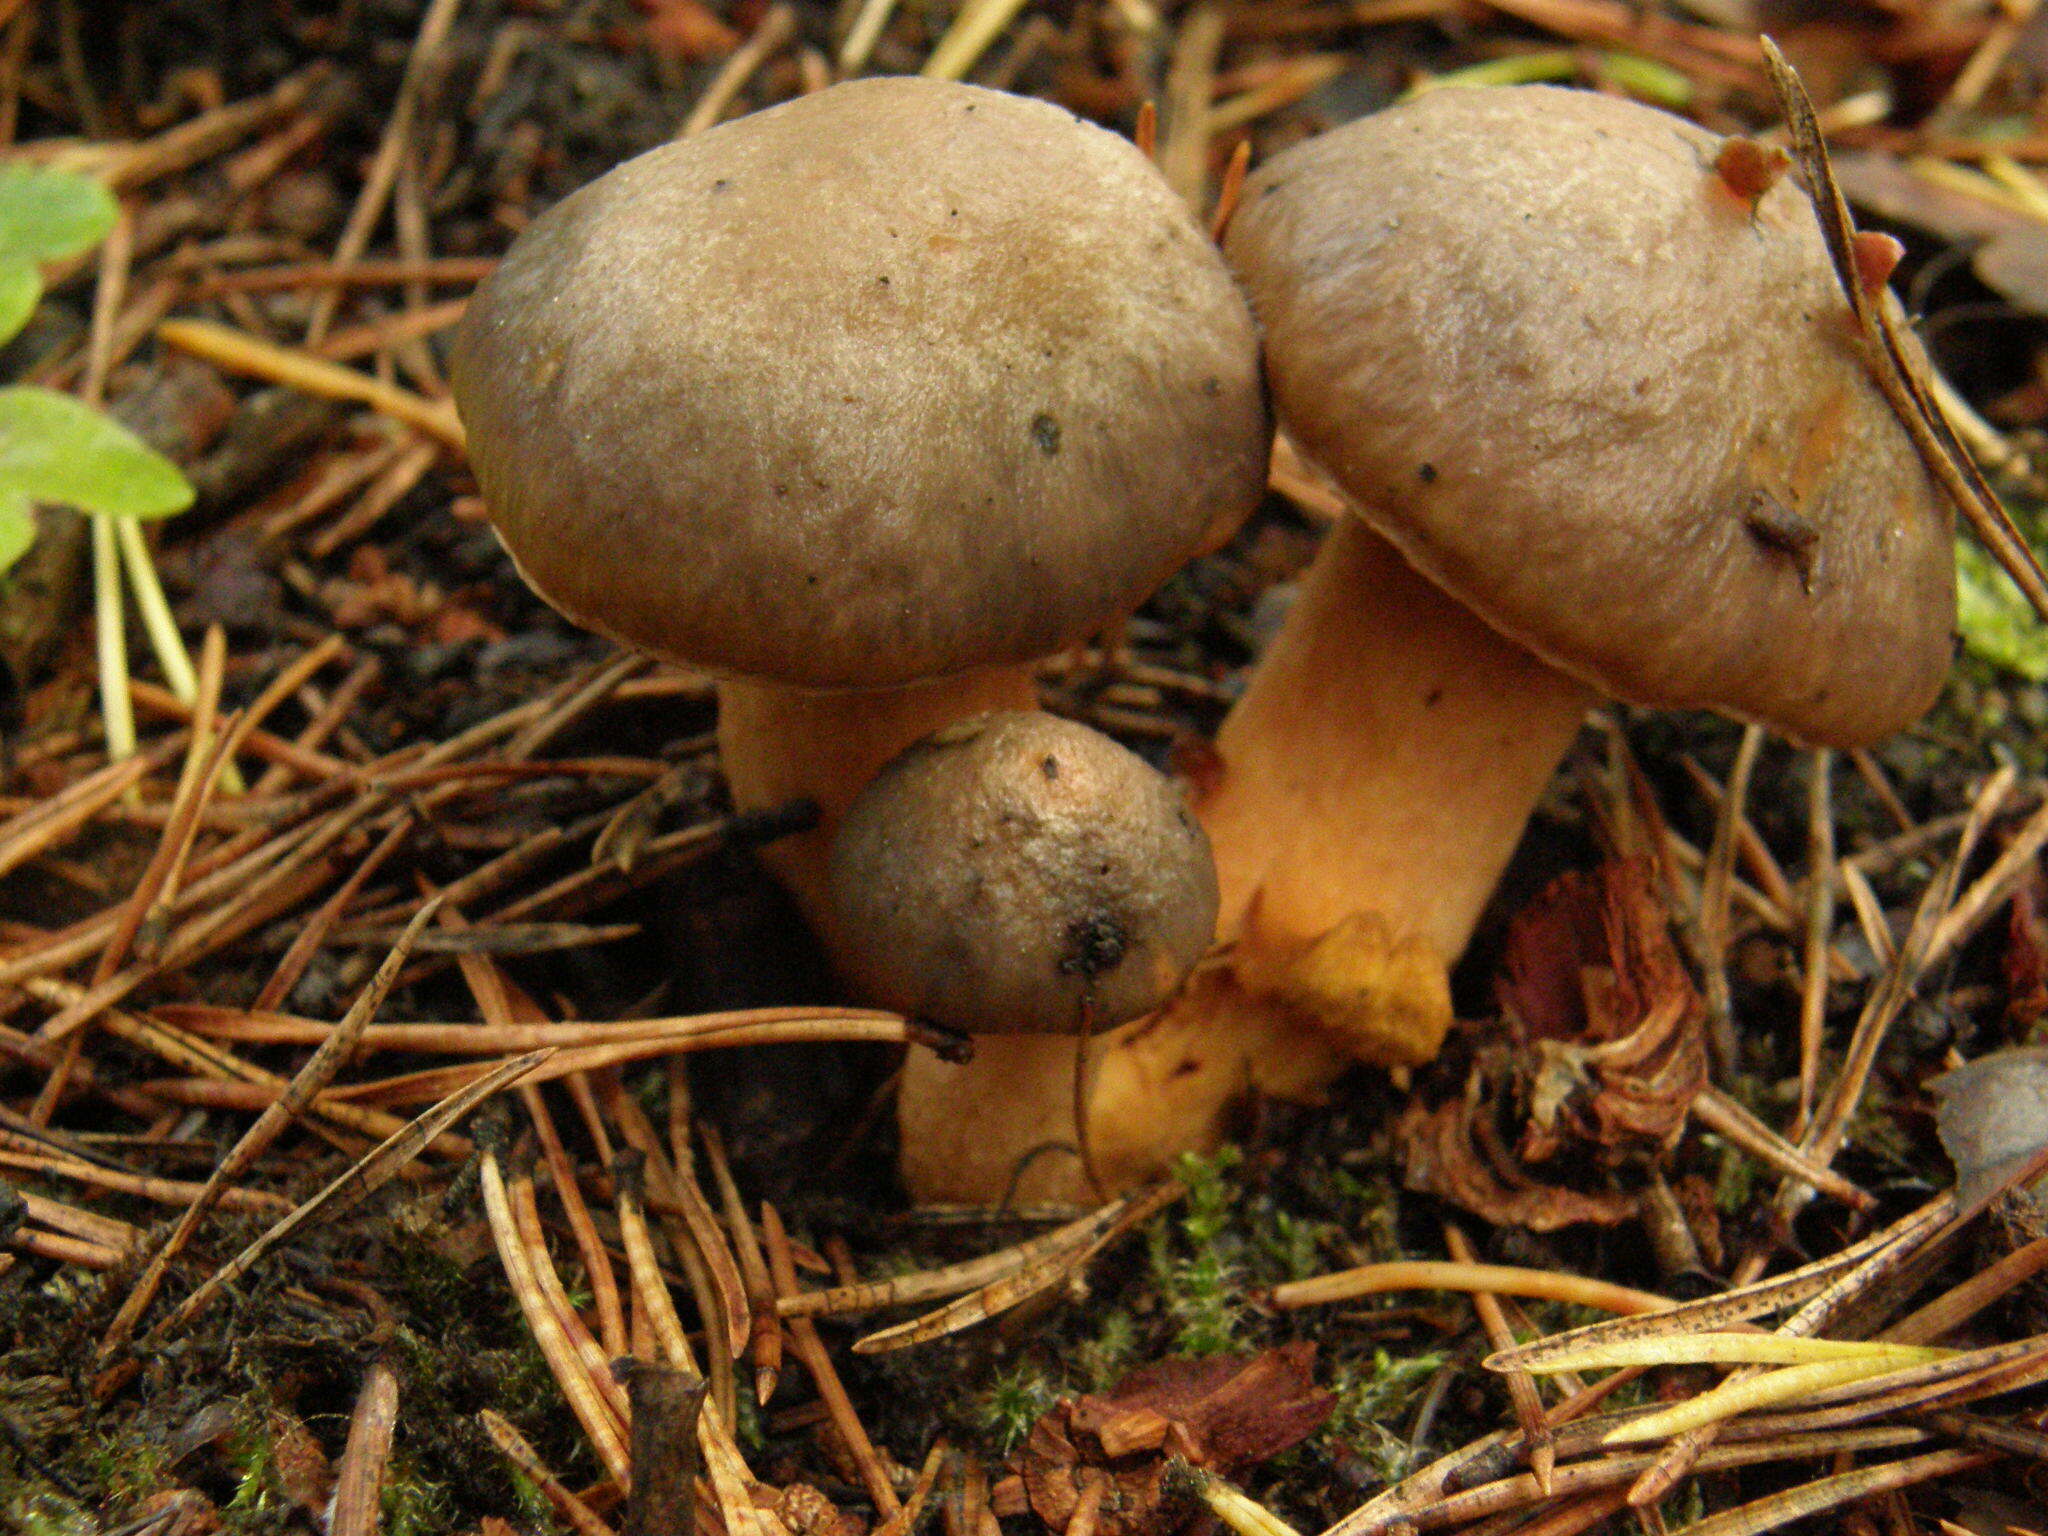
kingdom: Fungi
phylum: Basidiomycota
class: Agaricomycetes
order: Boletales
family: Gomphidiaceae
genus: Chroogomphus
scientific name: Chroogomphus rutilus
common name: Copper spike
